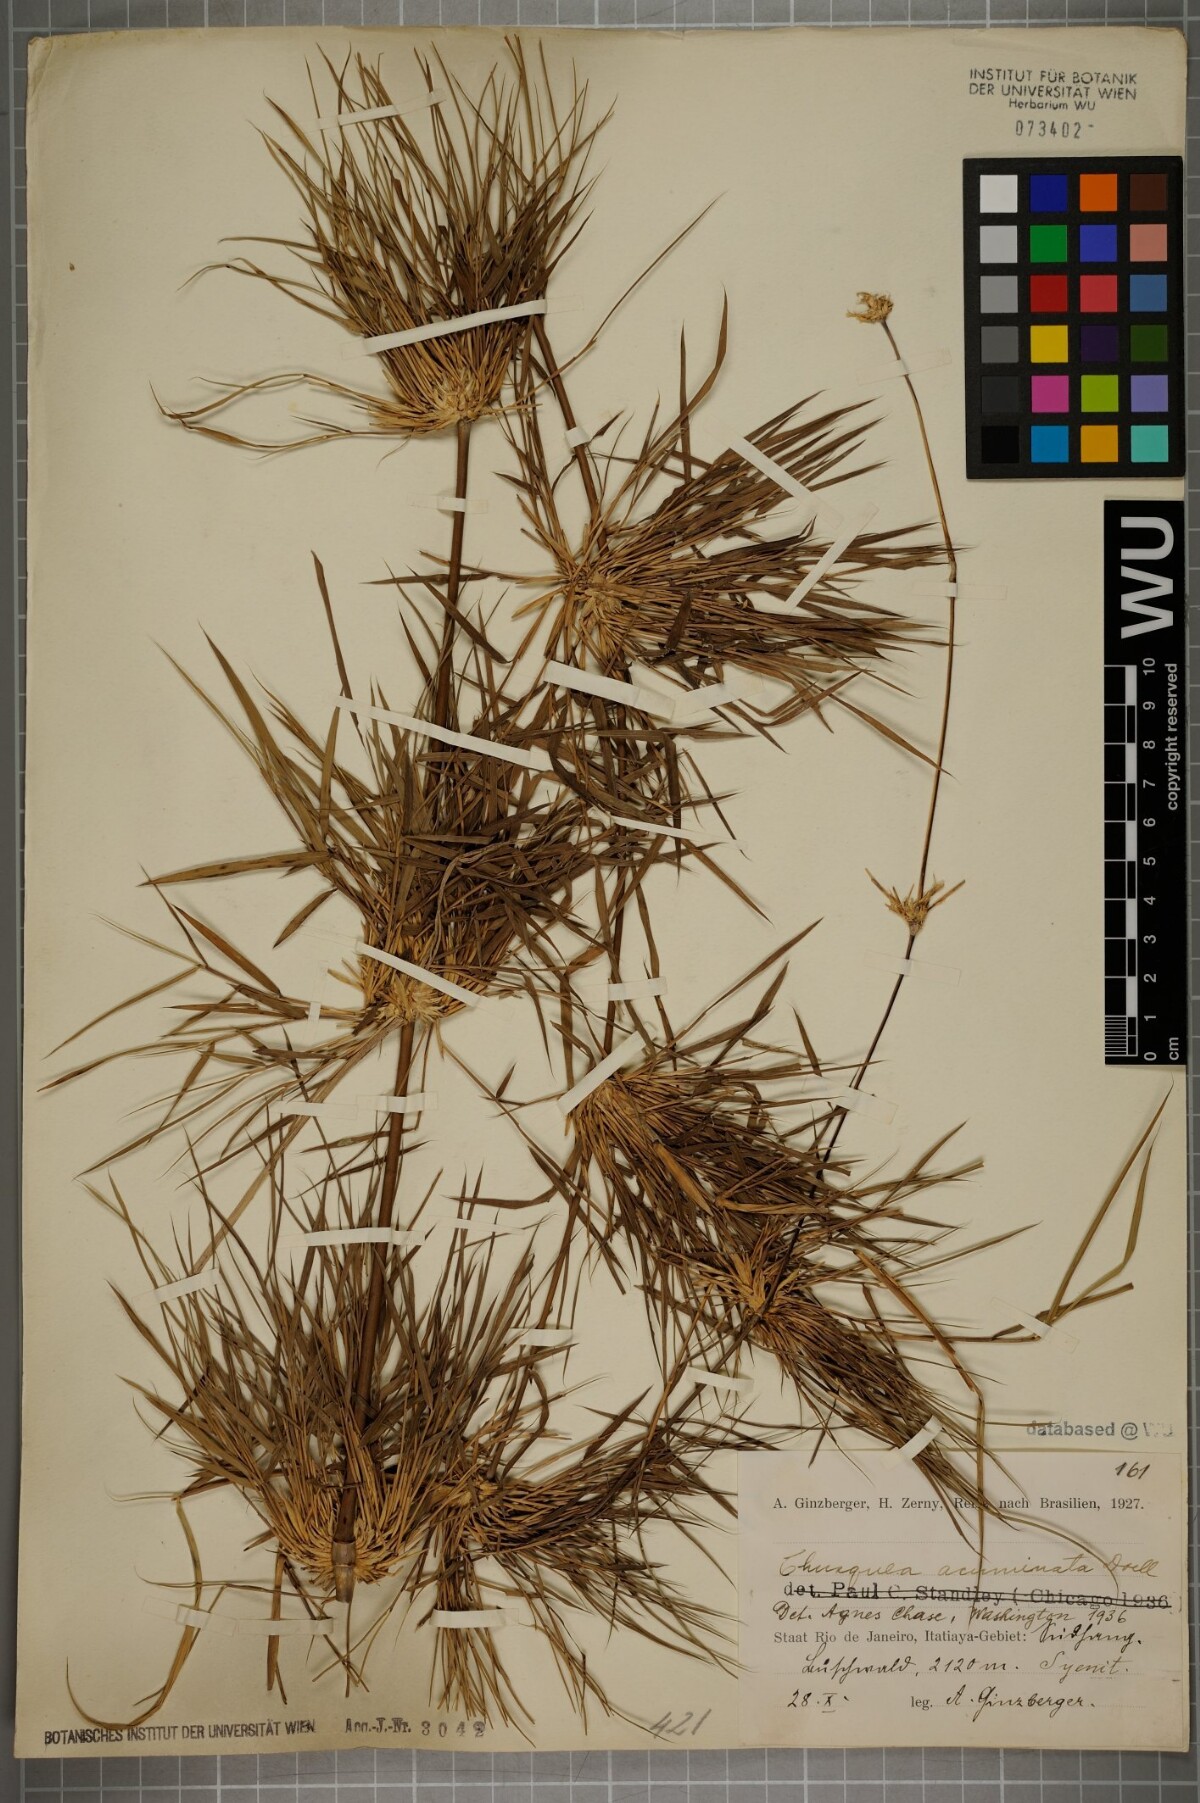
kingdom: Plantae
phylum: Tracheophyta
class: Liliopsida
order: Poales
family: Poaceae
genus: Chusquea
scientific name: Chusquea acuminata
